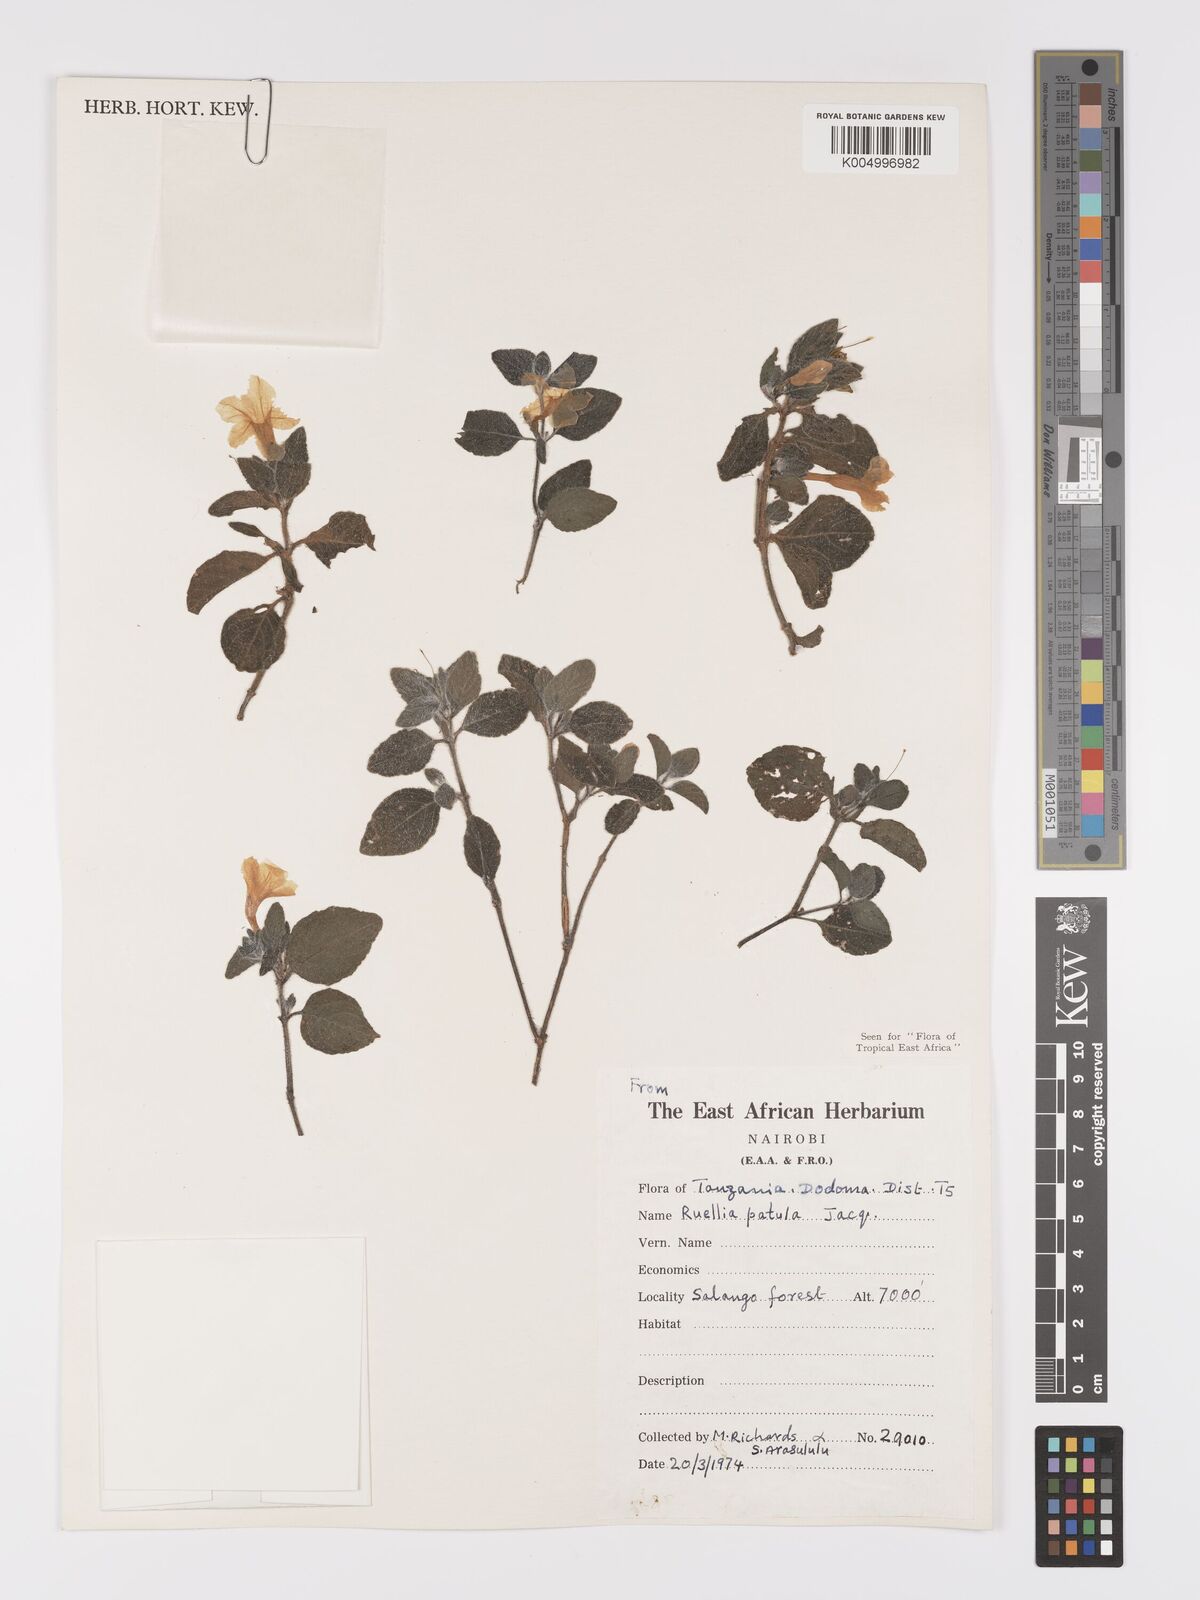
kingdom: Plantae
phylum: Tracheophyta
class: Magnoliopsida
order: Lamiales
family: Acanthaceae
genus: Ruellia
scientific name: Ruellia patula
